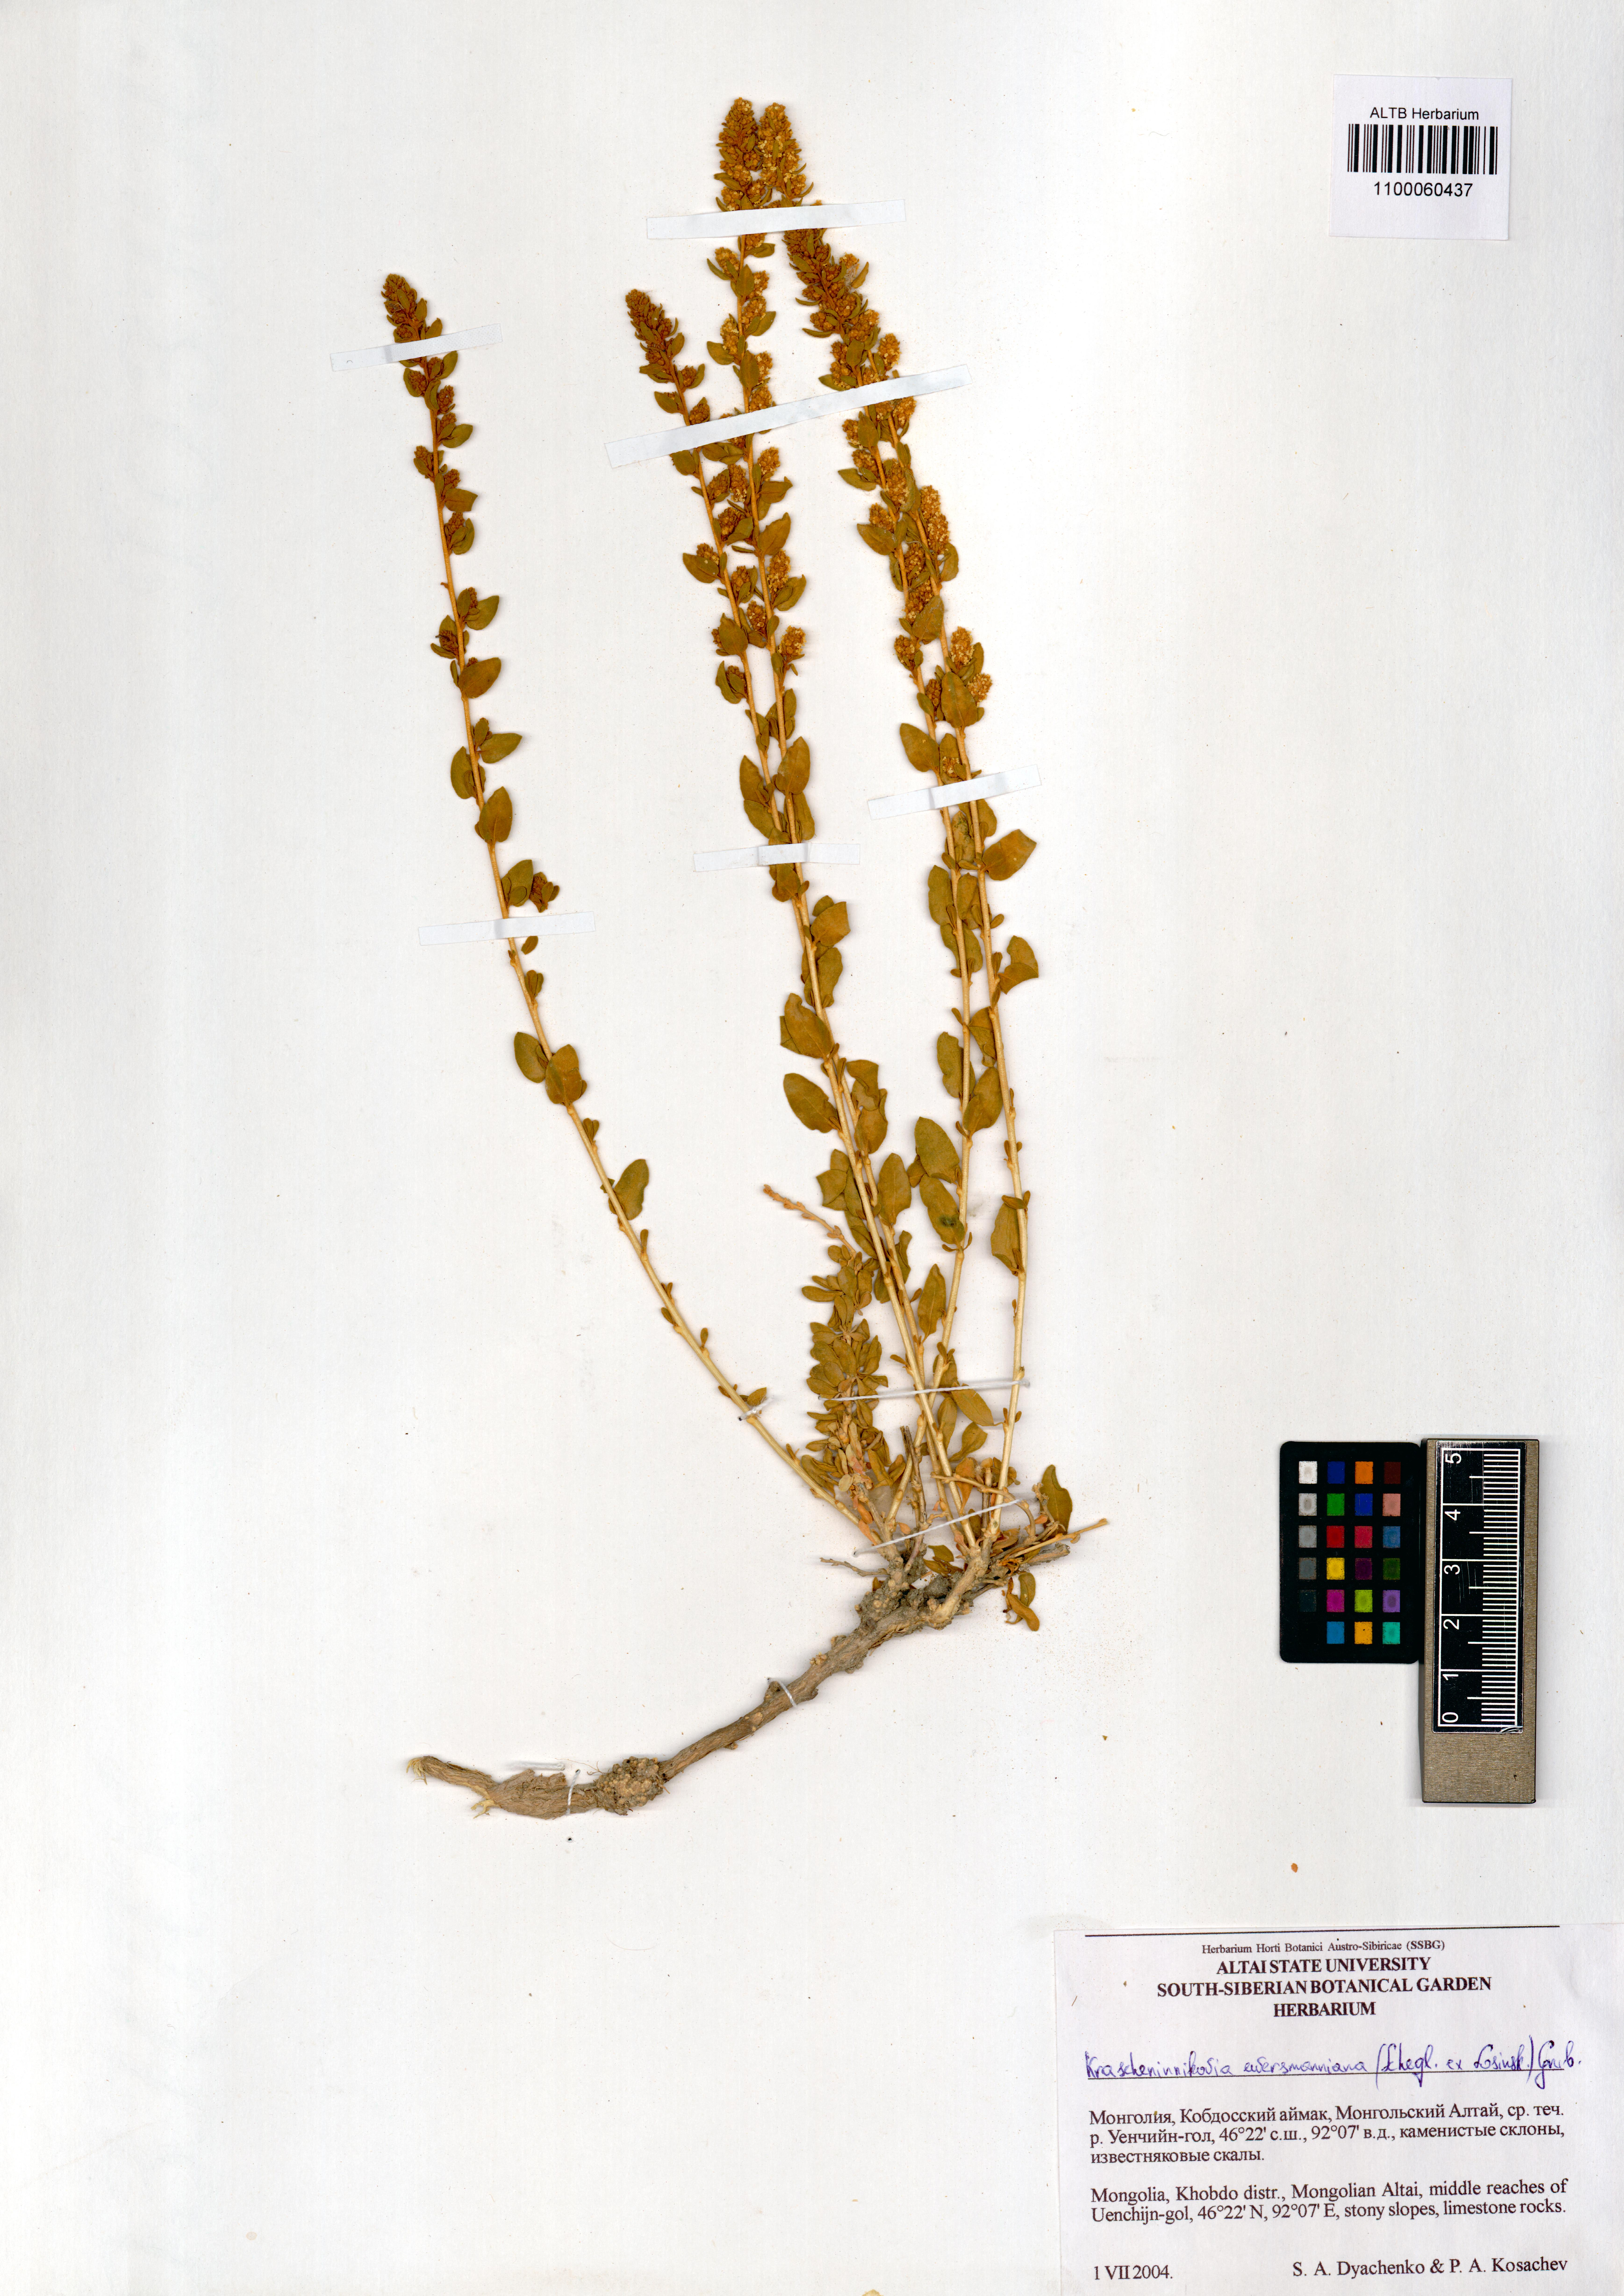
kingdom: Plantae
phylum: Tracheophyta
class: Magnoliopsida
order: Caryophyllales
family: Amaranthaceae
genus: Krascheninnikovia
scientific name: Krascheninnikovia ceratoides
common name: Pamirian winterfat
